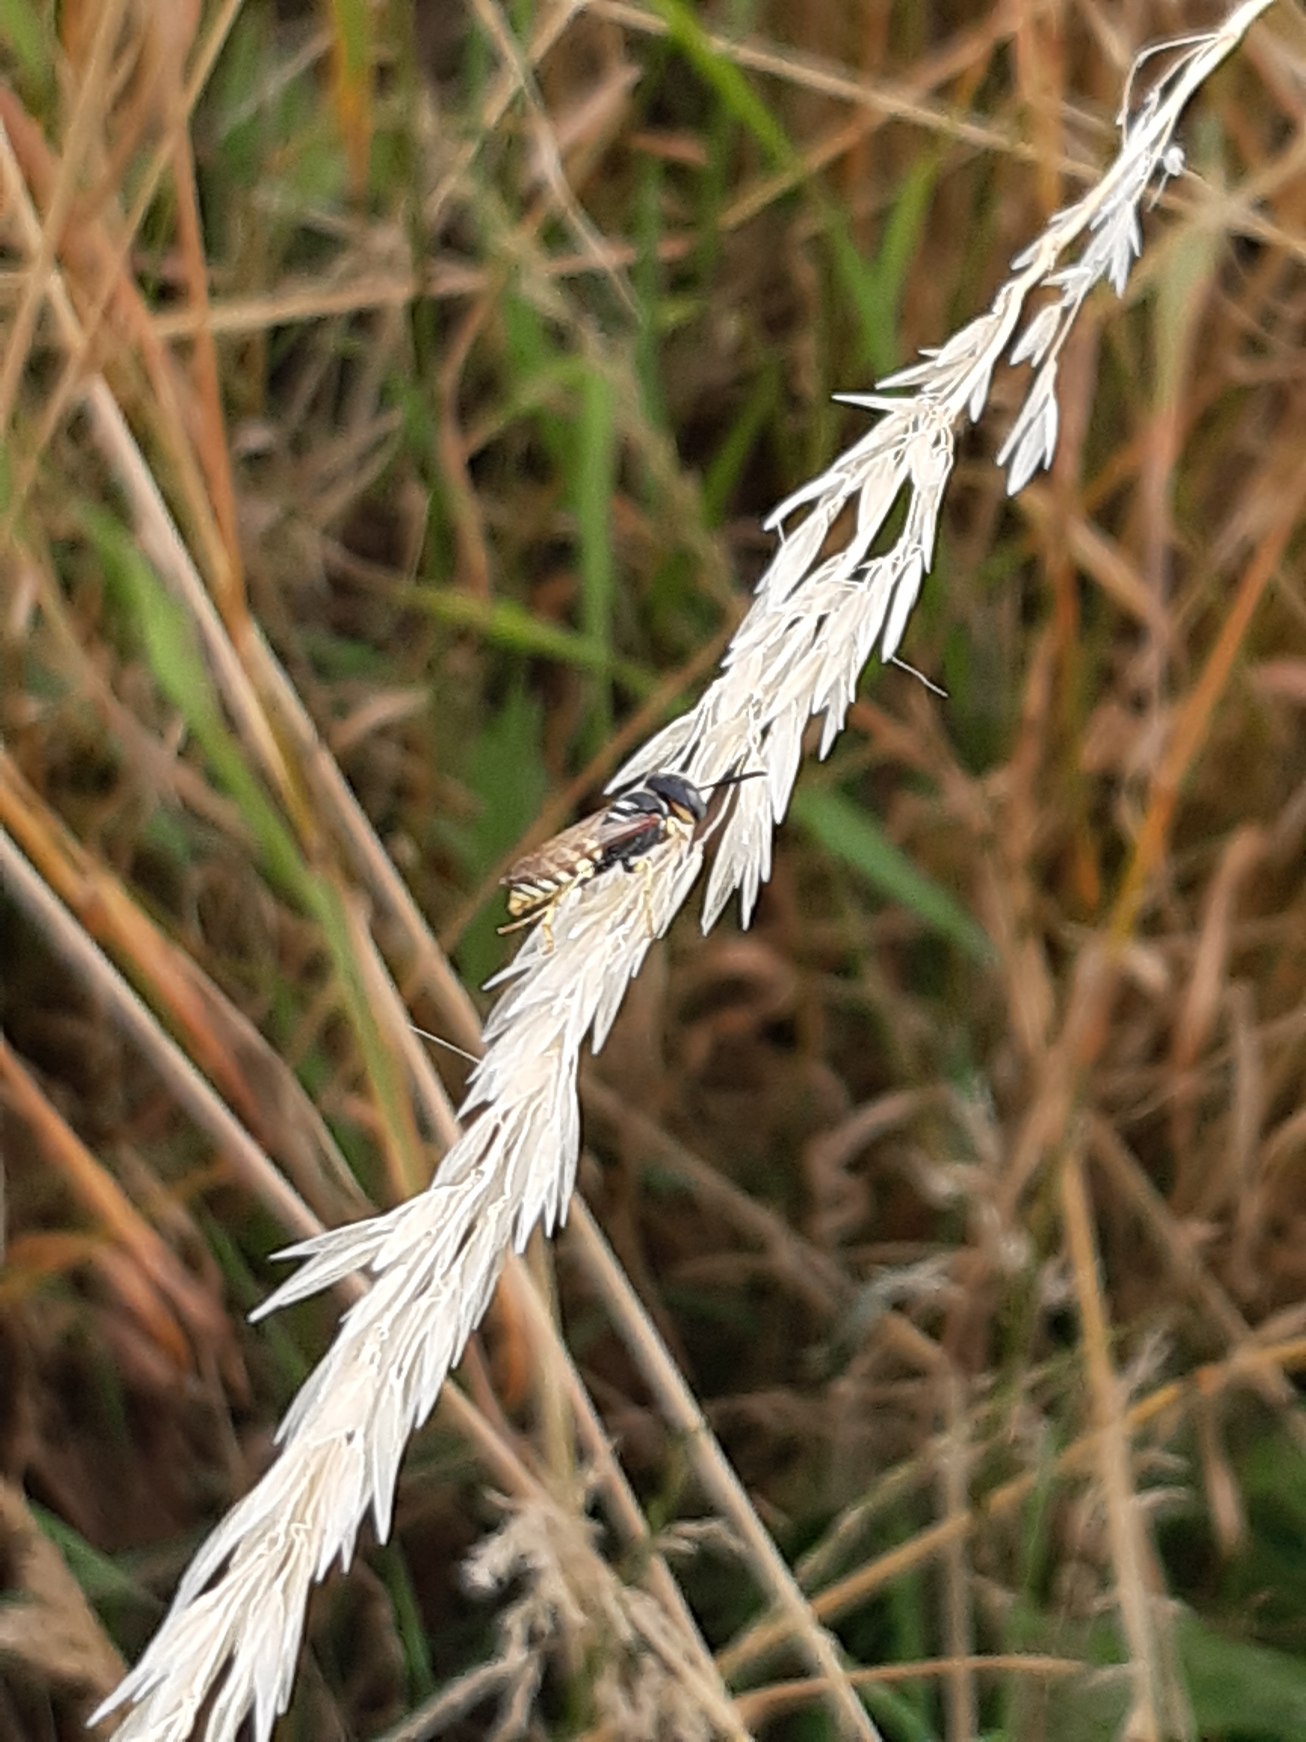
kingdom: Animalia
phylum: Arthropoda
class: Insecta
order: Hymenoptera
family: Crabronidae
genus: Philanthus
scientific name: Philanthus triangulum
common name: Biulv
